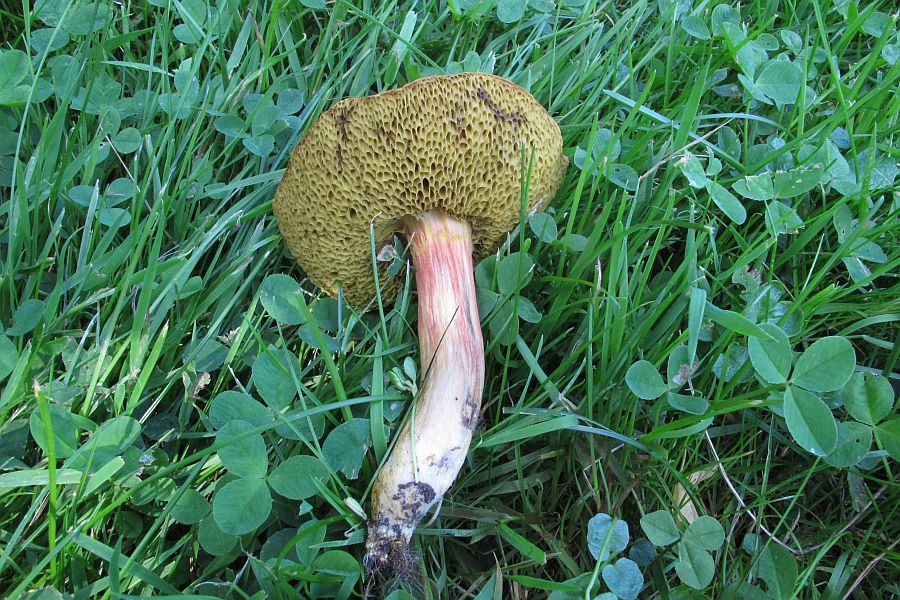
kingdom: Fungi
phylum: Basidiomycota
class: Agaricomycetes
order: Boletales
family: Boletaceae
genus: Hortiboletus
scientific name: Hortiboletus rubellus
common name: blodrød rørhat
